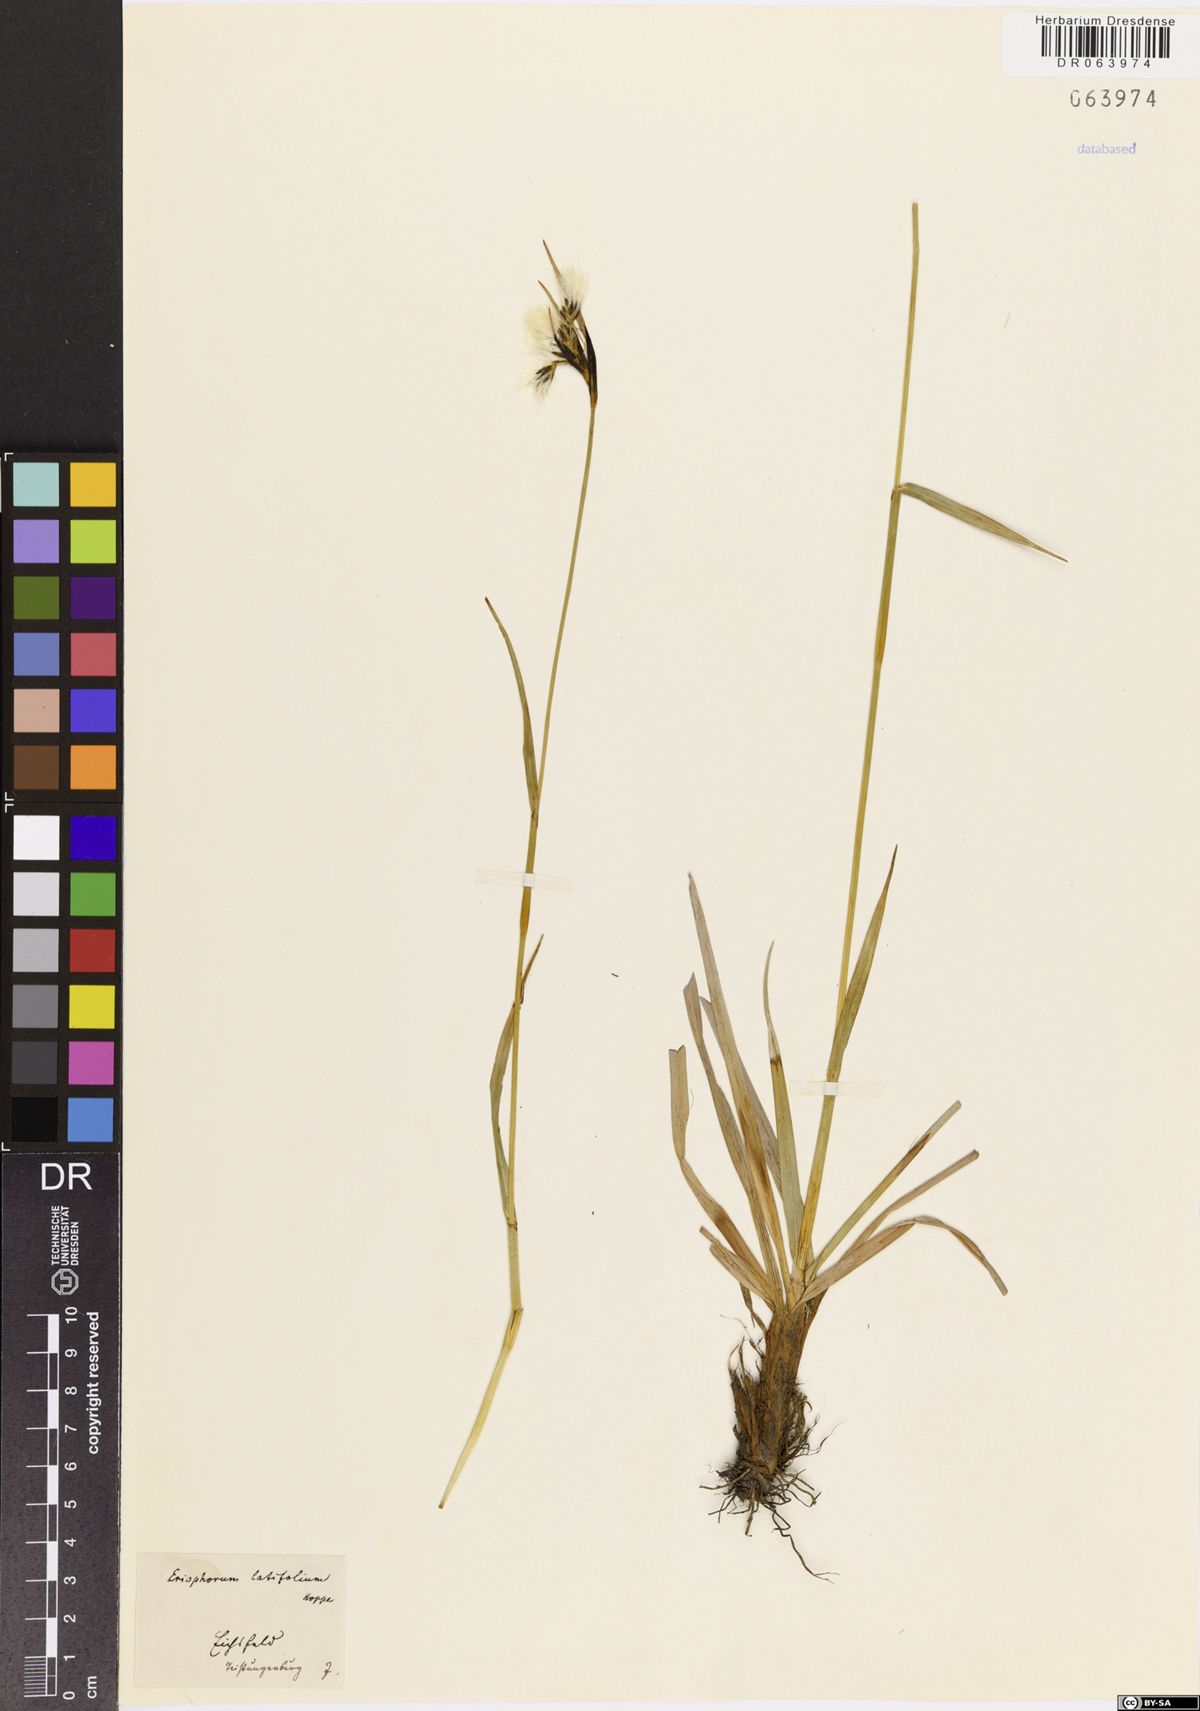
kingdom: Plantae
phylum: Tracheophyta
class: Liliopsida
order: Poales
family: Cyperaceae
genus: Eriophorum
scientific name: Eriophorum latifolium
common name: Broad-leaved cottongrass
